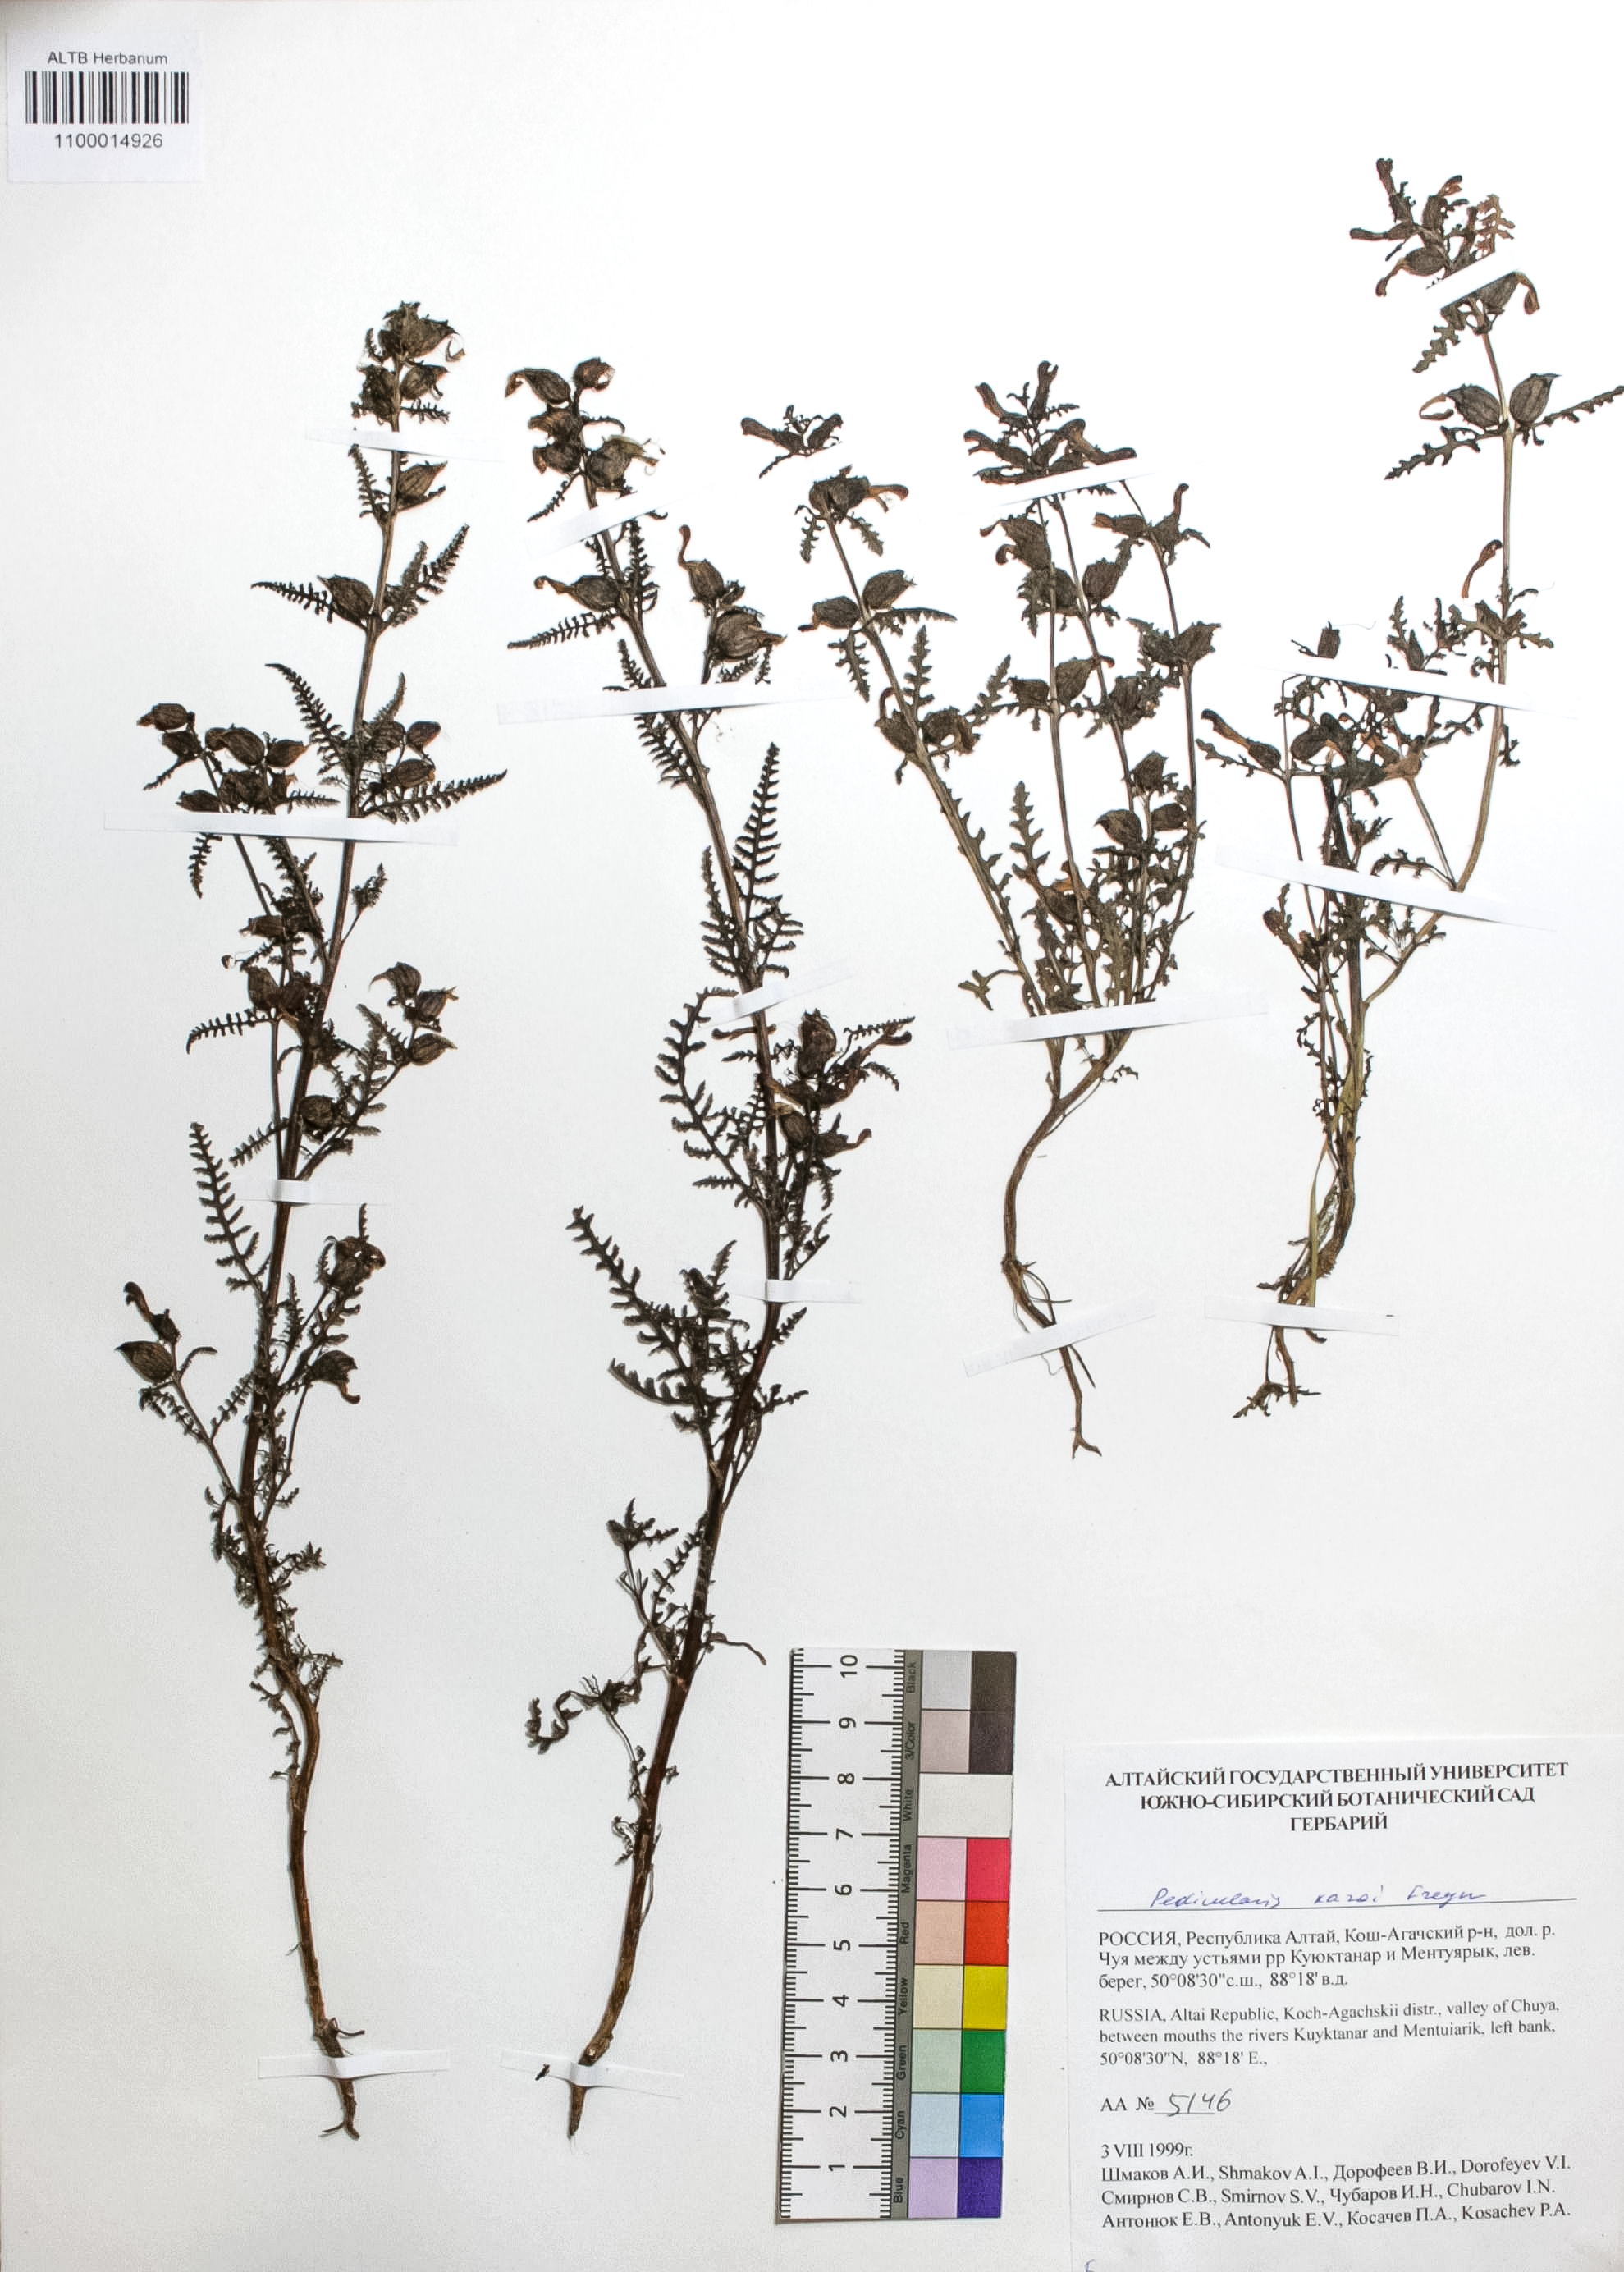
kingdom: Plantae
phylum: Tracheophyta
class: Magnoliopsida
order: Lamiales
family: Orobanchaceae
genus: Pedicularis
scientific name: Pedicularis karoi
